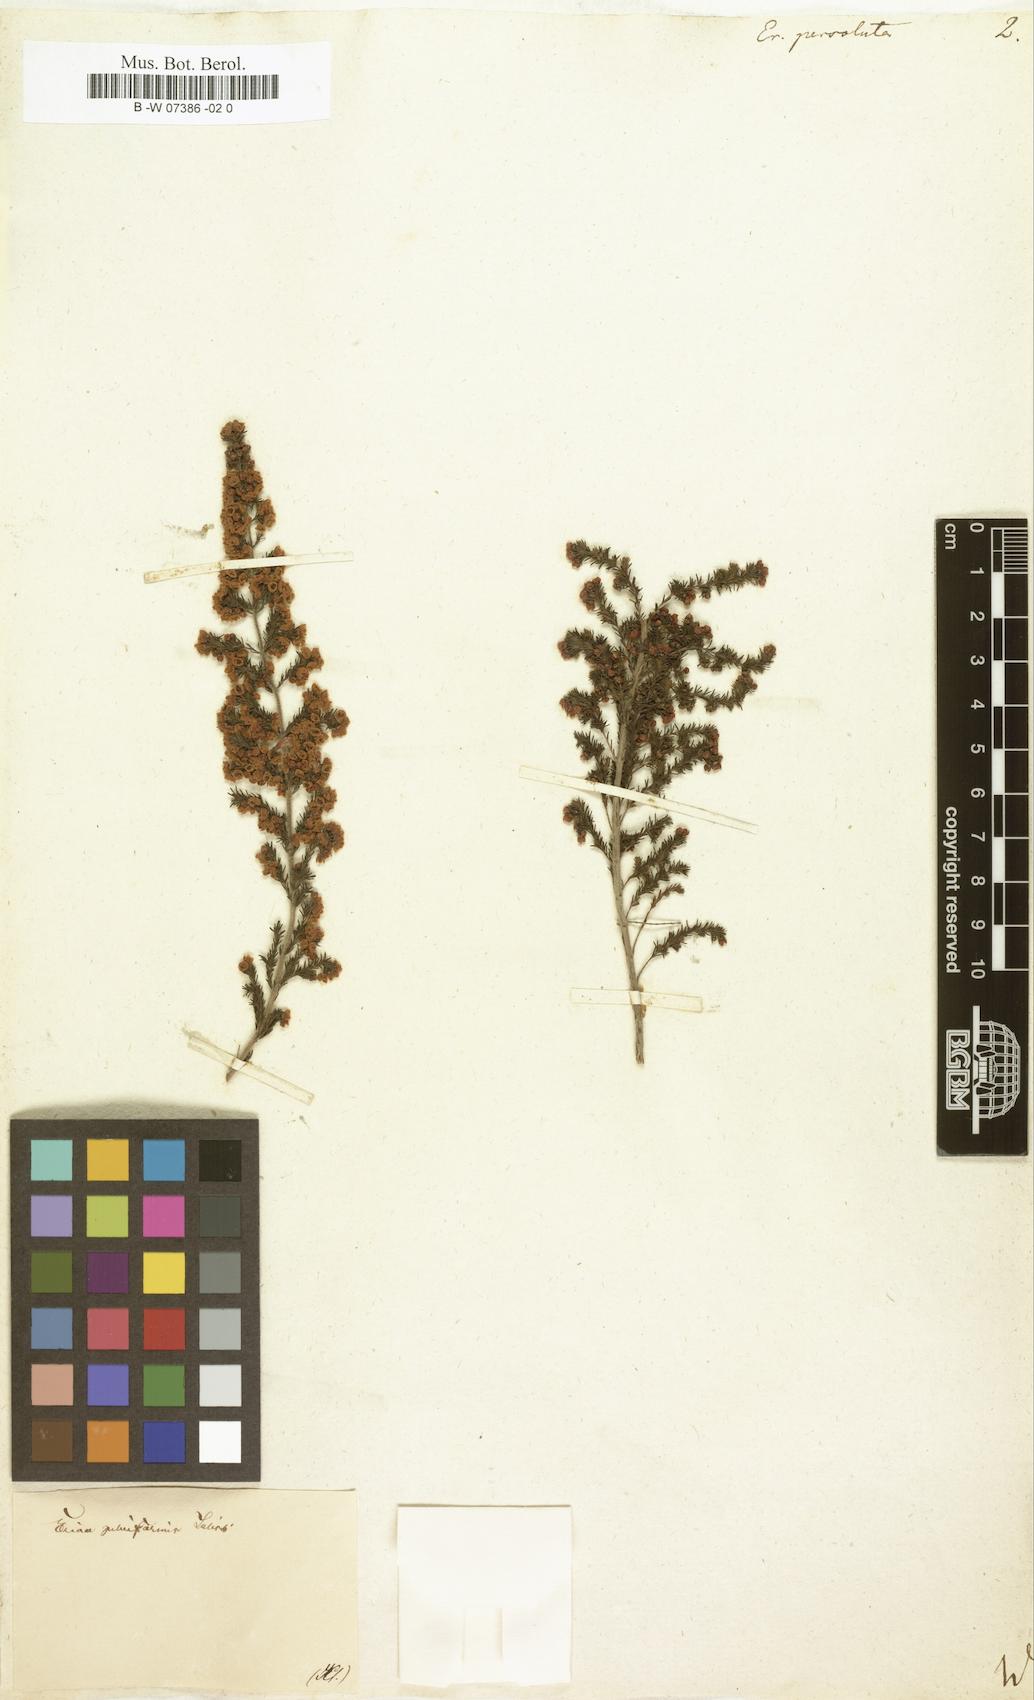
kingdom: Plantae
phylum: Tracheophyta
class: Magnoliopsida
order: Ericales
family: Ericaceae
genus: Erica
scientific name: Erica
